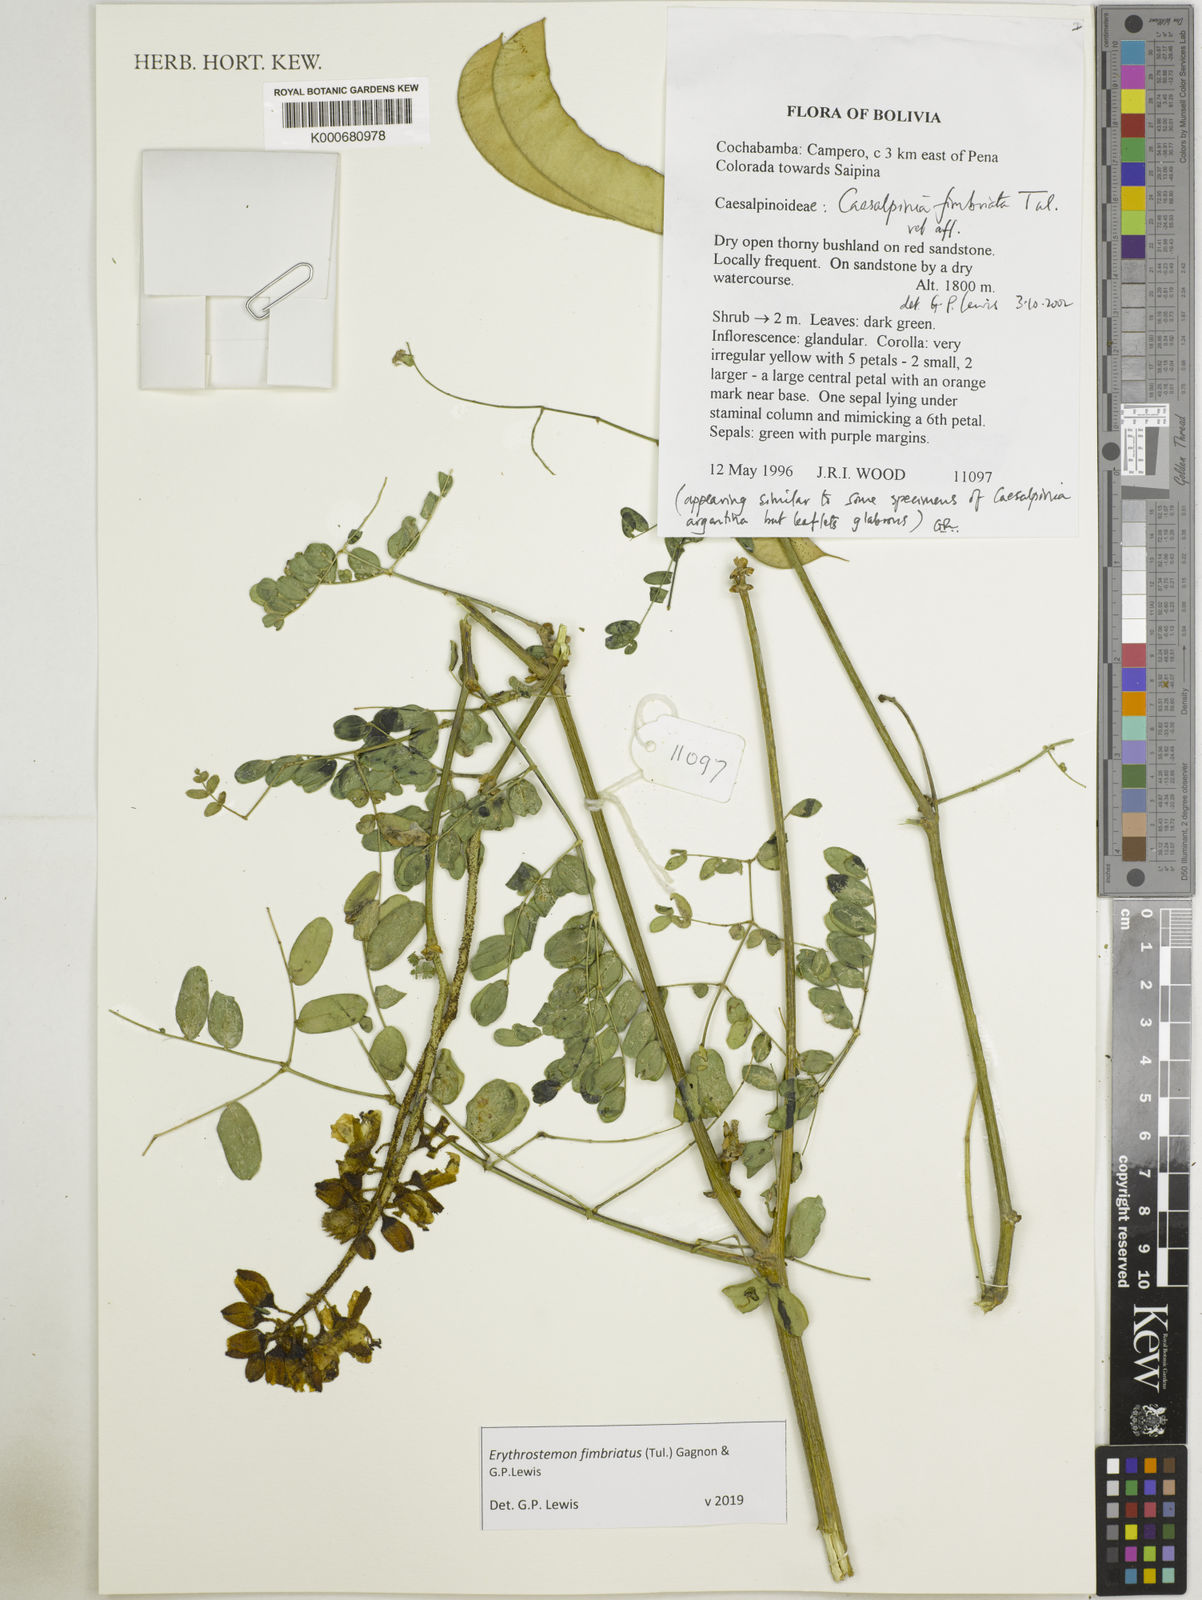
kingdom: Plantae
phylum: Tracheophyta
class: Magnoliopsida
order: Fabales
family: Fabaceae
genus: Erythrostemon
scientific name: Erythrostemon fimbriatus
